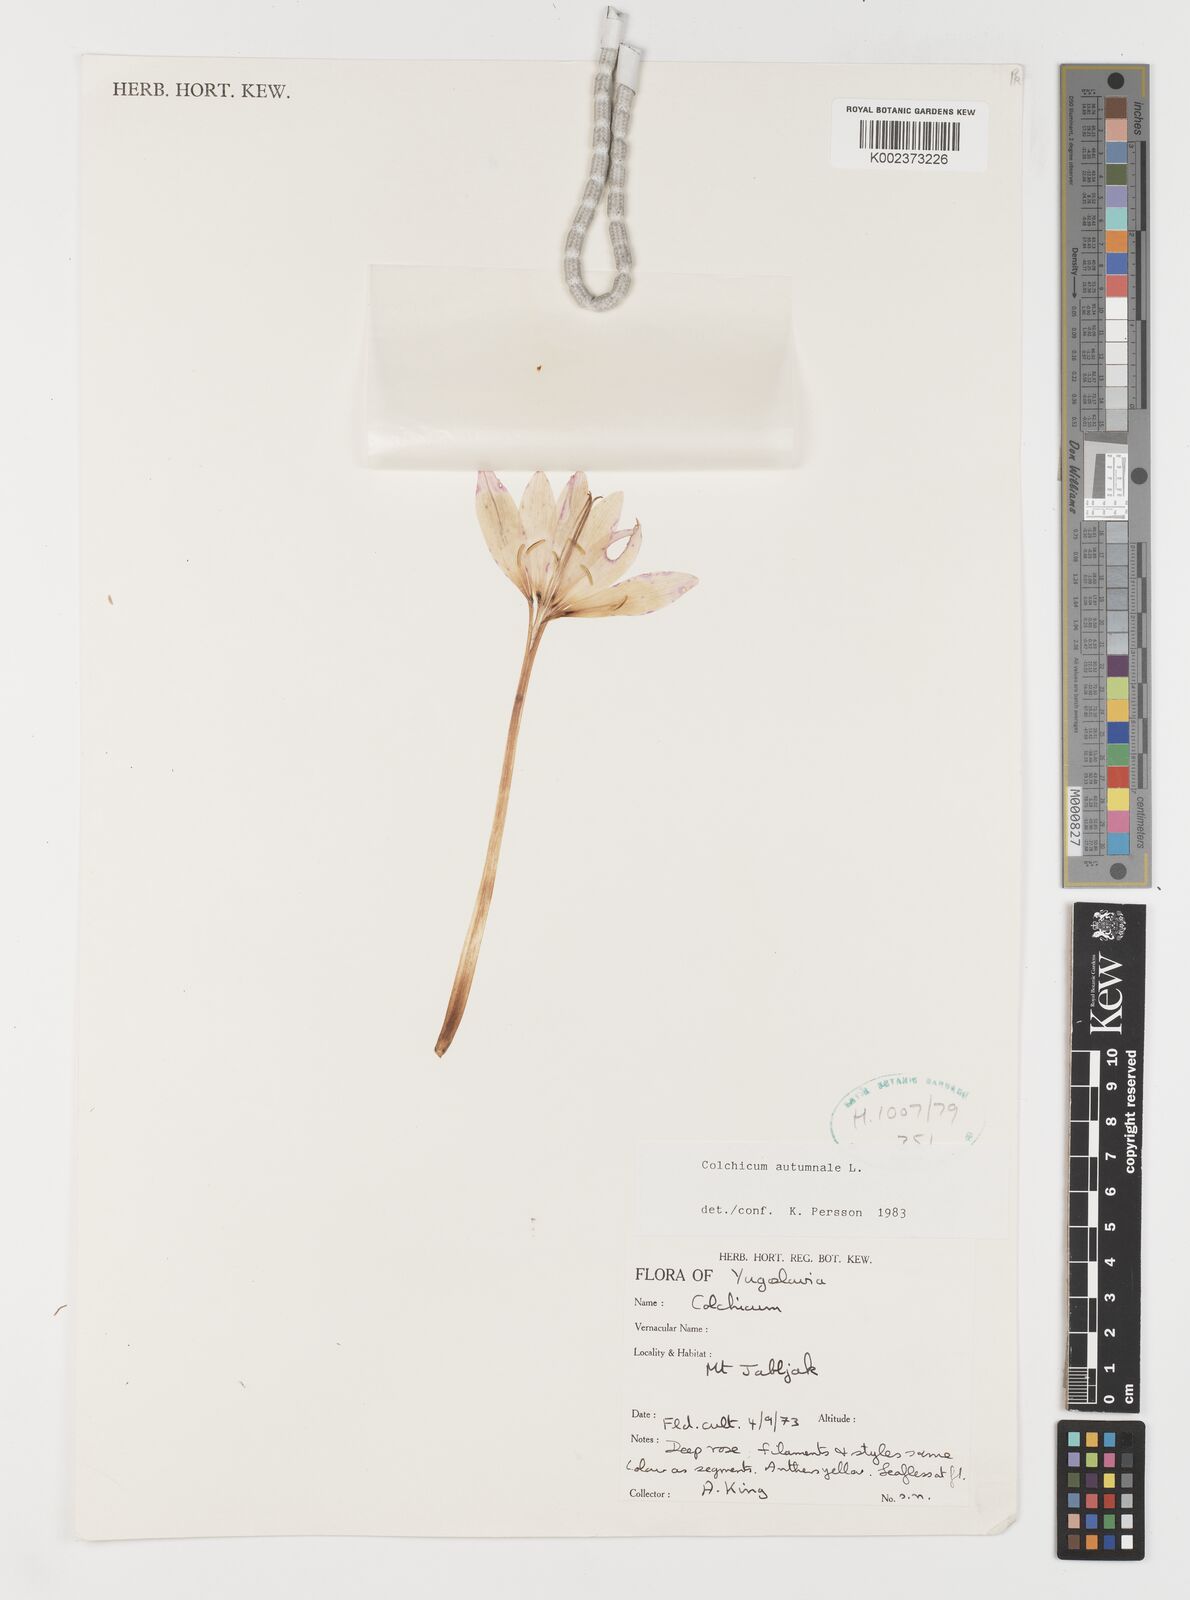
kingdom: Plantae
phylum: Tracheophyta
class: Liliopsida
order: Liliales
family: Colchicaceae
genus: Colchicum
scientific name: Colchicum autumnale
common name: Autumn crocus
